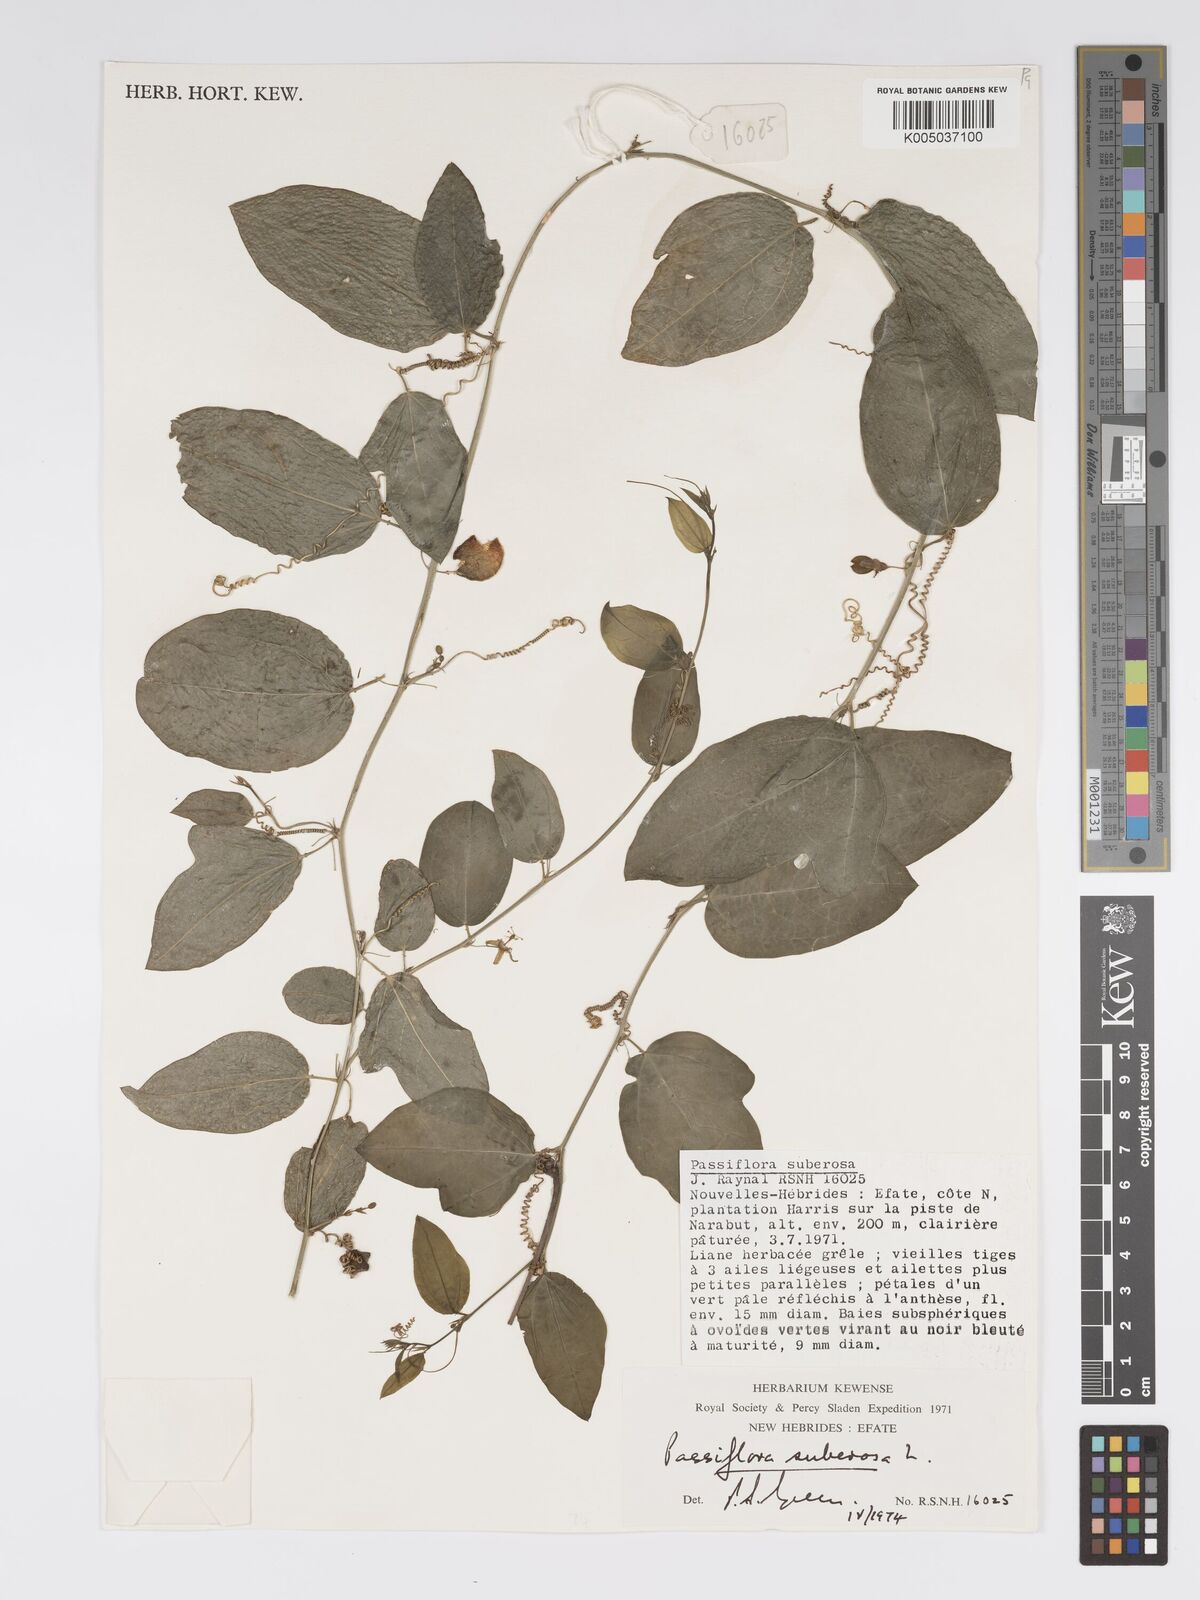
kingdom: Plantae
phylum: Tracheophyta
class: Magnoliopsida
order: Malpighiales
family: Passifloraceae
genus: Passiflora
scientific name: Passiflora suberosa
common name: Wild passionfruit
